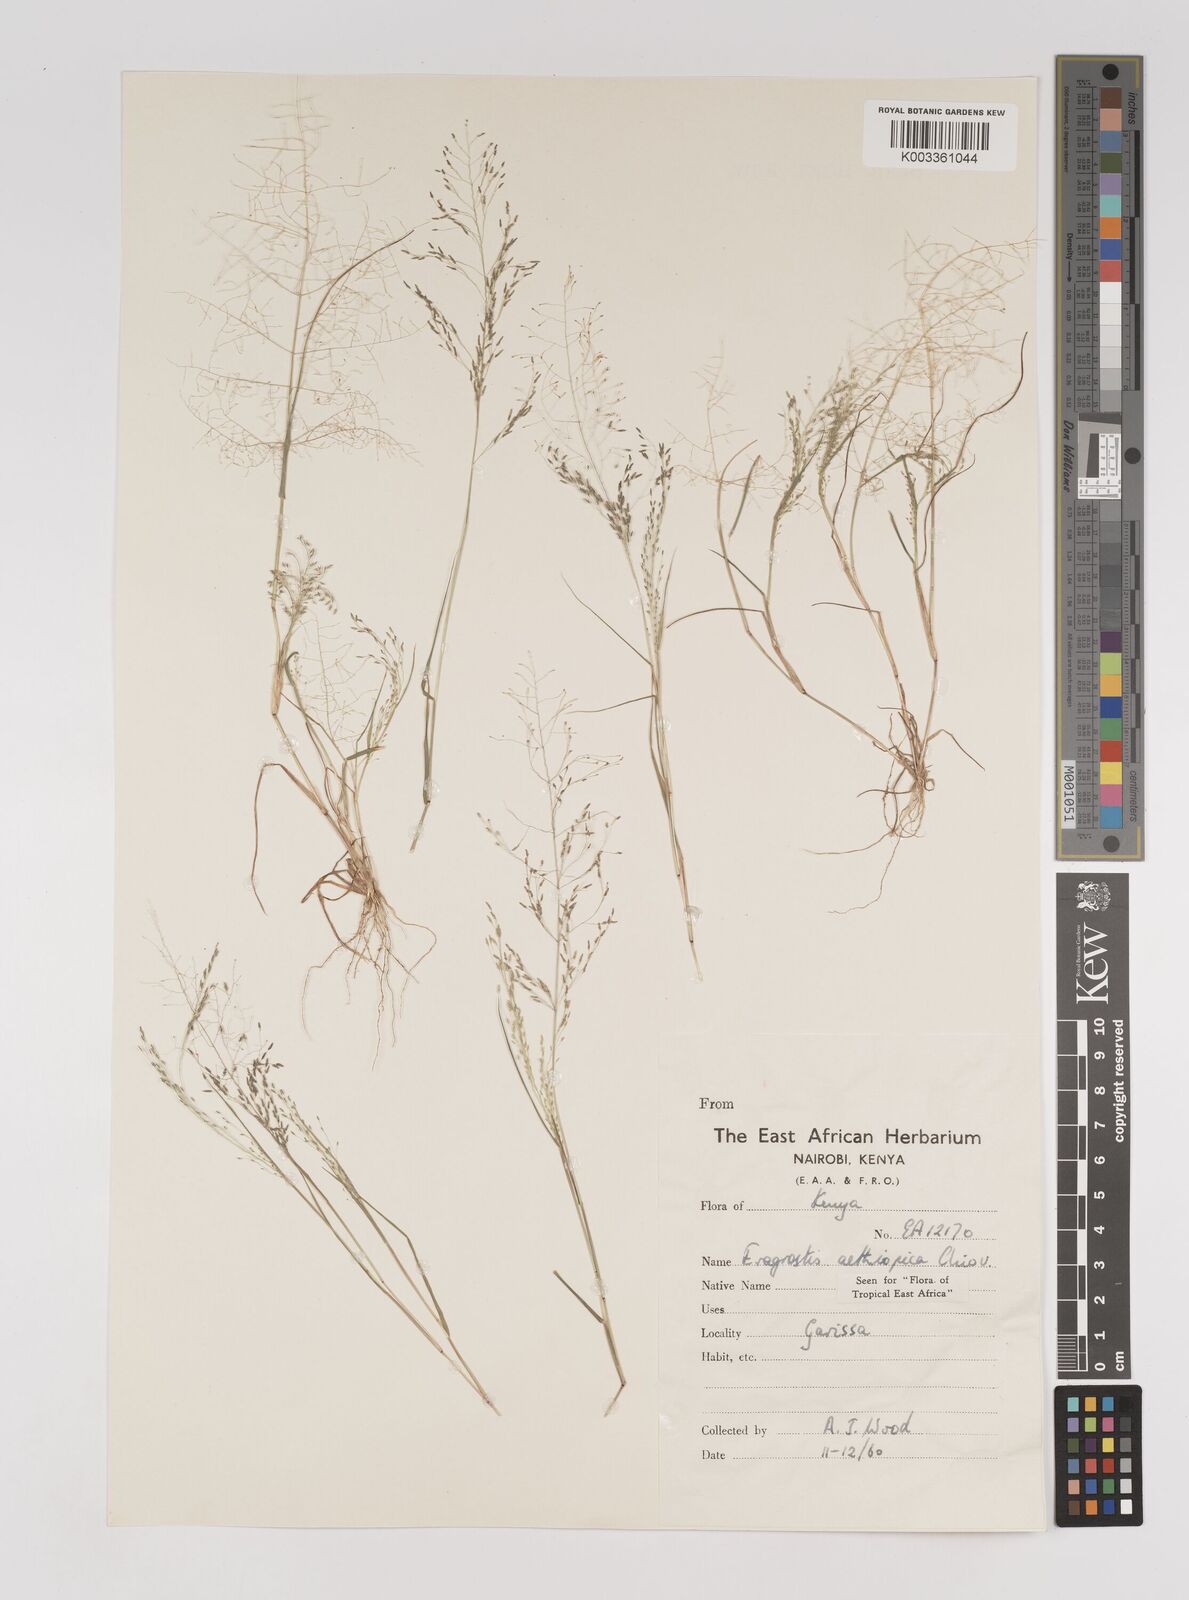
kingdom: Plantae
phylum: Tracheophyta
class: Liliopsida
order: Poales
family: Poaceae
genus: Eragrostis
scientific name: Eragrostis aethiopica
